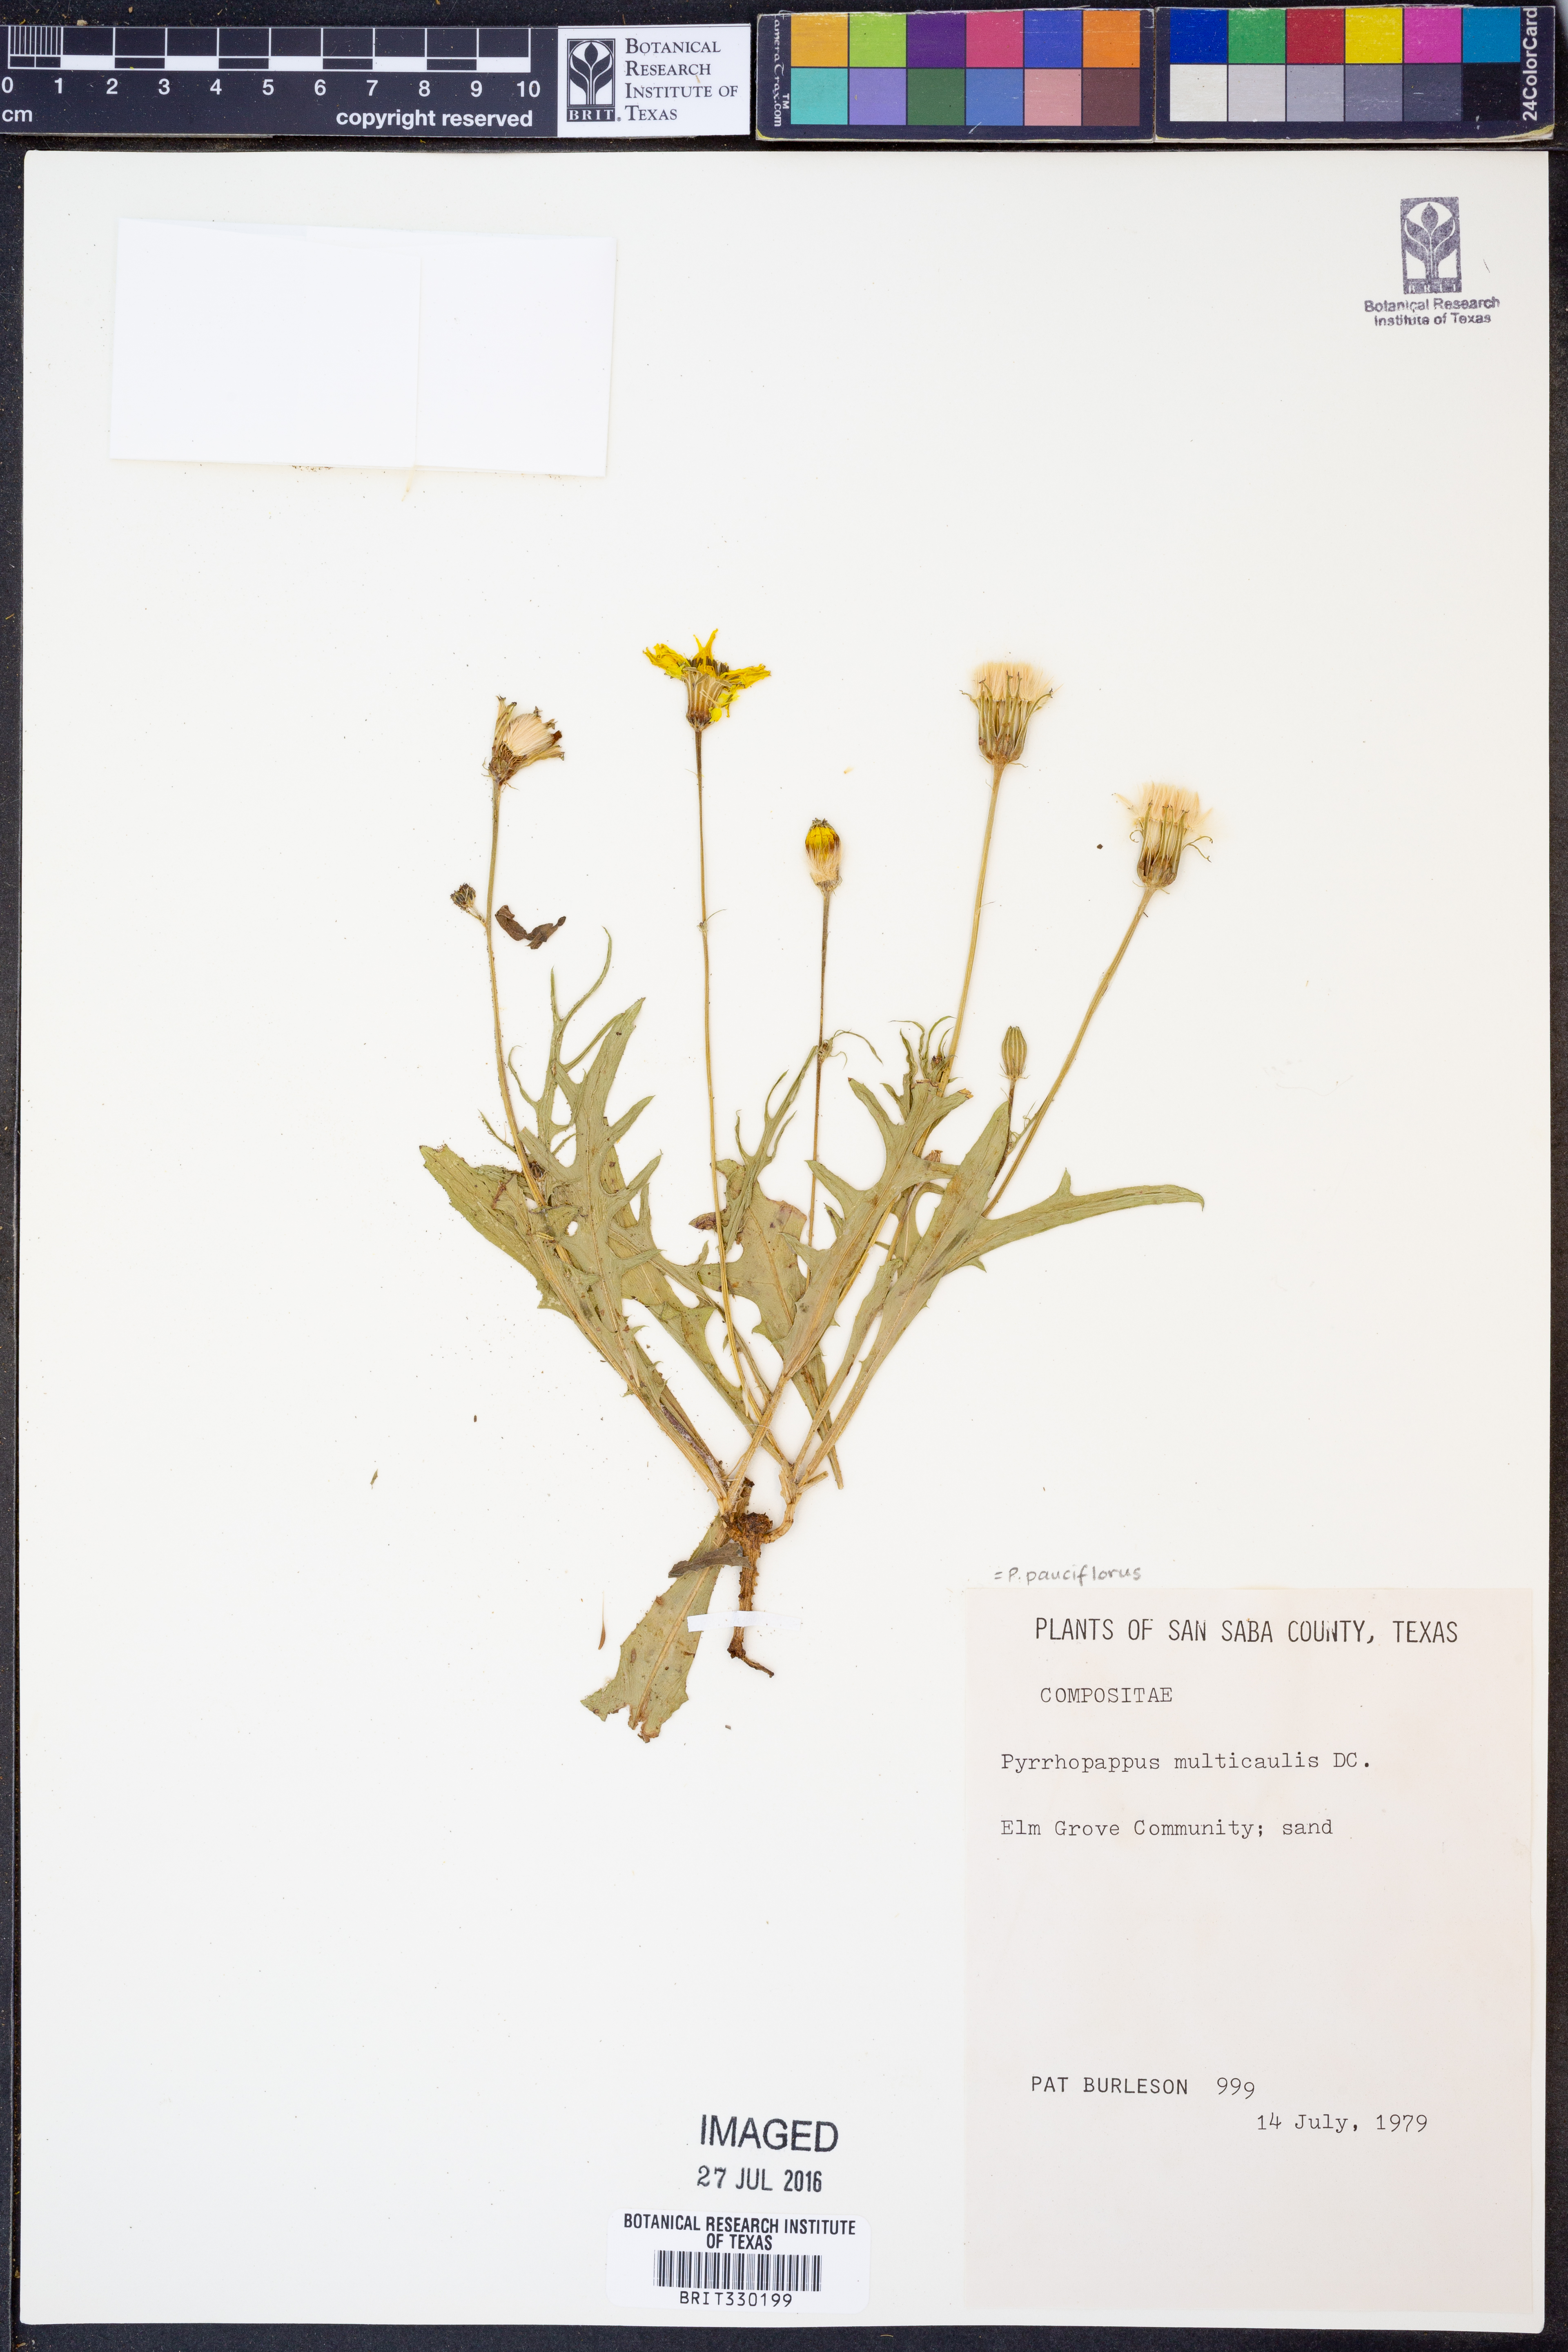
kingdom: Plantae
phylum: Tracheophyta
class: Magnoliopsida
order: Asterales
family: Asteraceae
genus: Pyrrhopappus
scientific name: Pyrrhopappus pauciflorus
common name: Texas false dandelion
